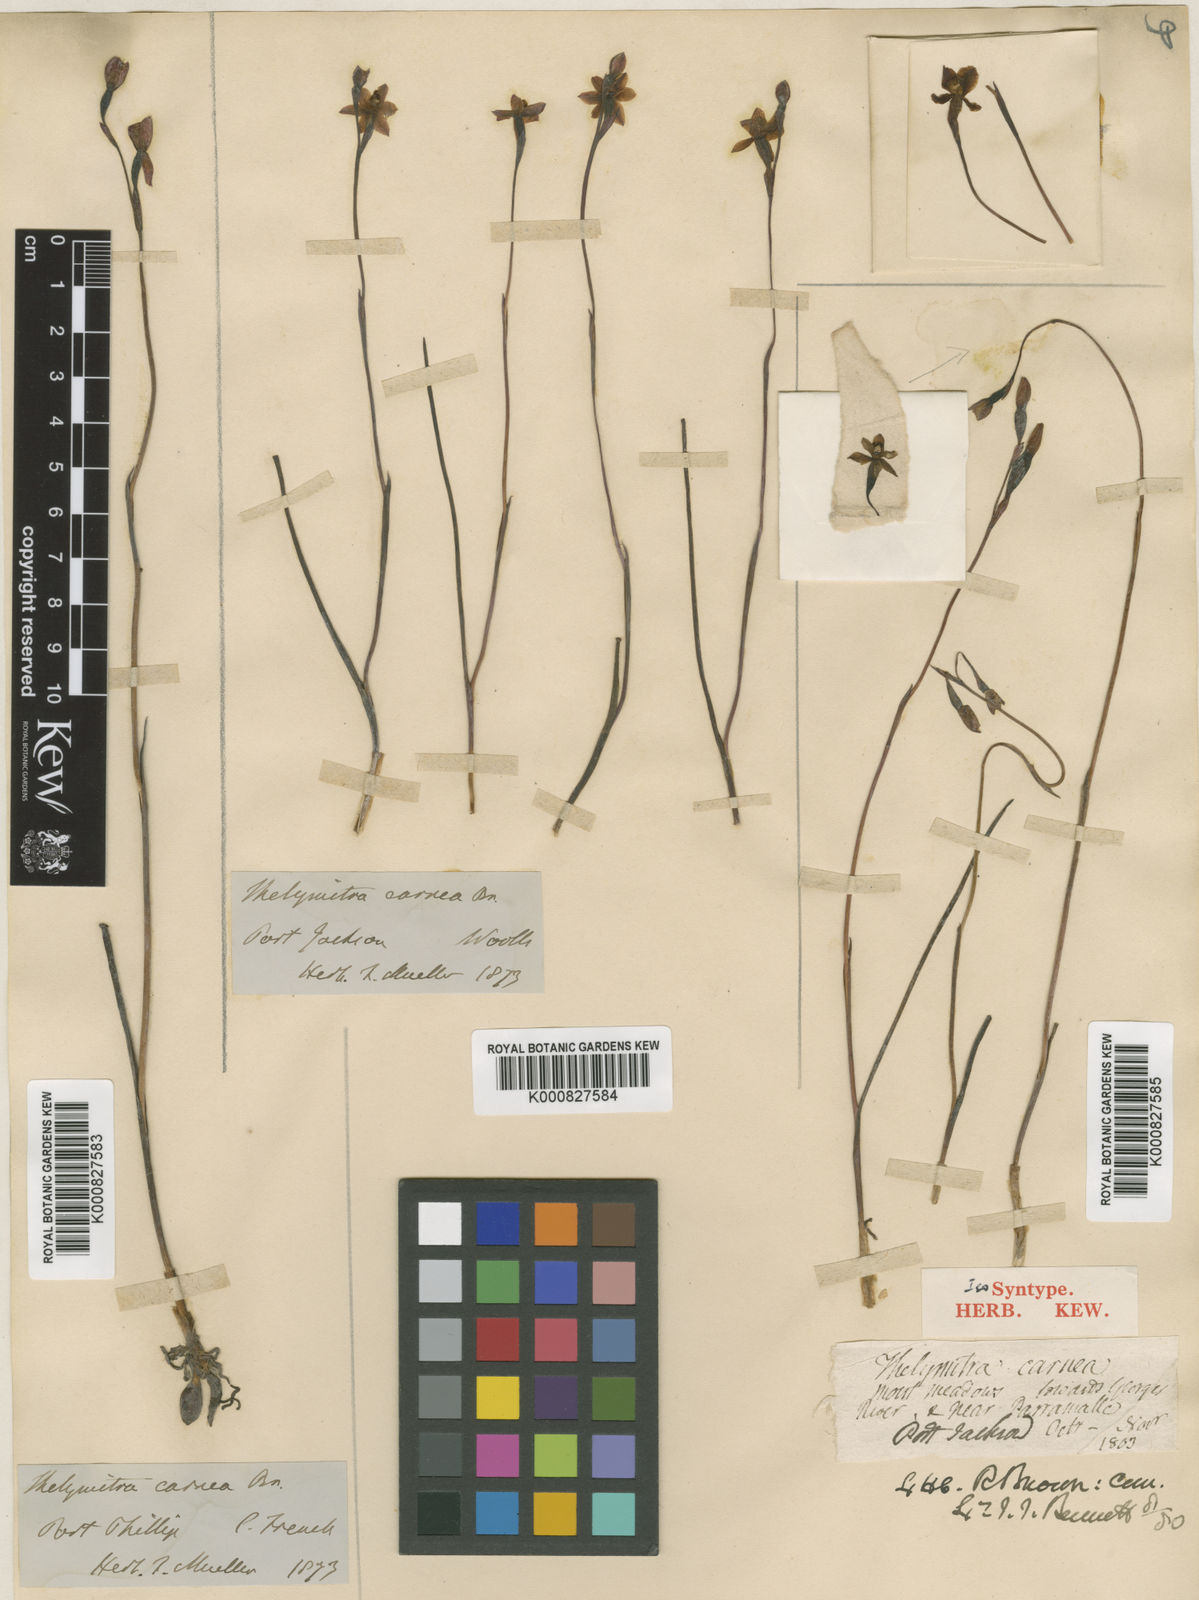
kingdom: Plantae
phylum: Tracheophyta
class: Liliopsida
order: Asparagales
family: Orchidaceae
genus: Thelymitra
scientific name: Thelymitra carnea
